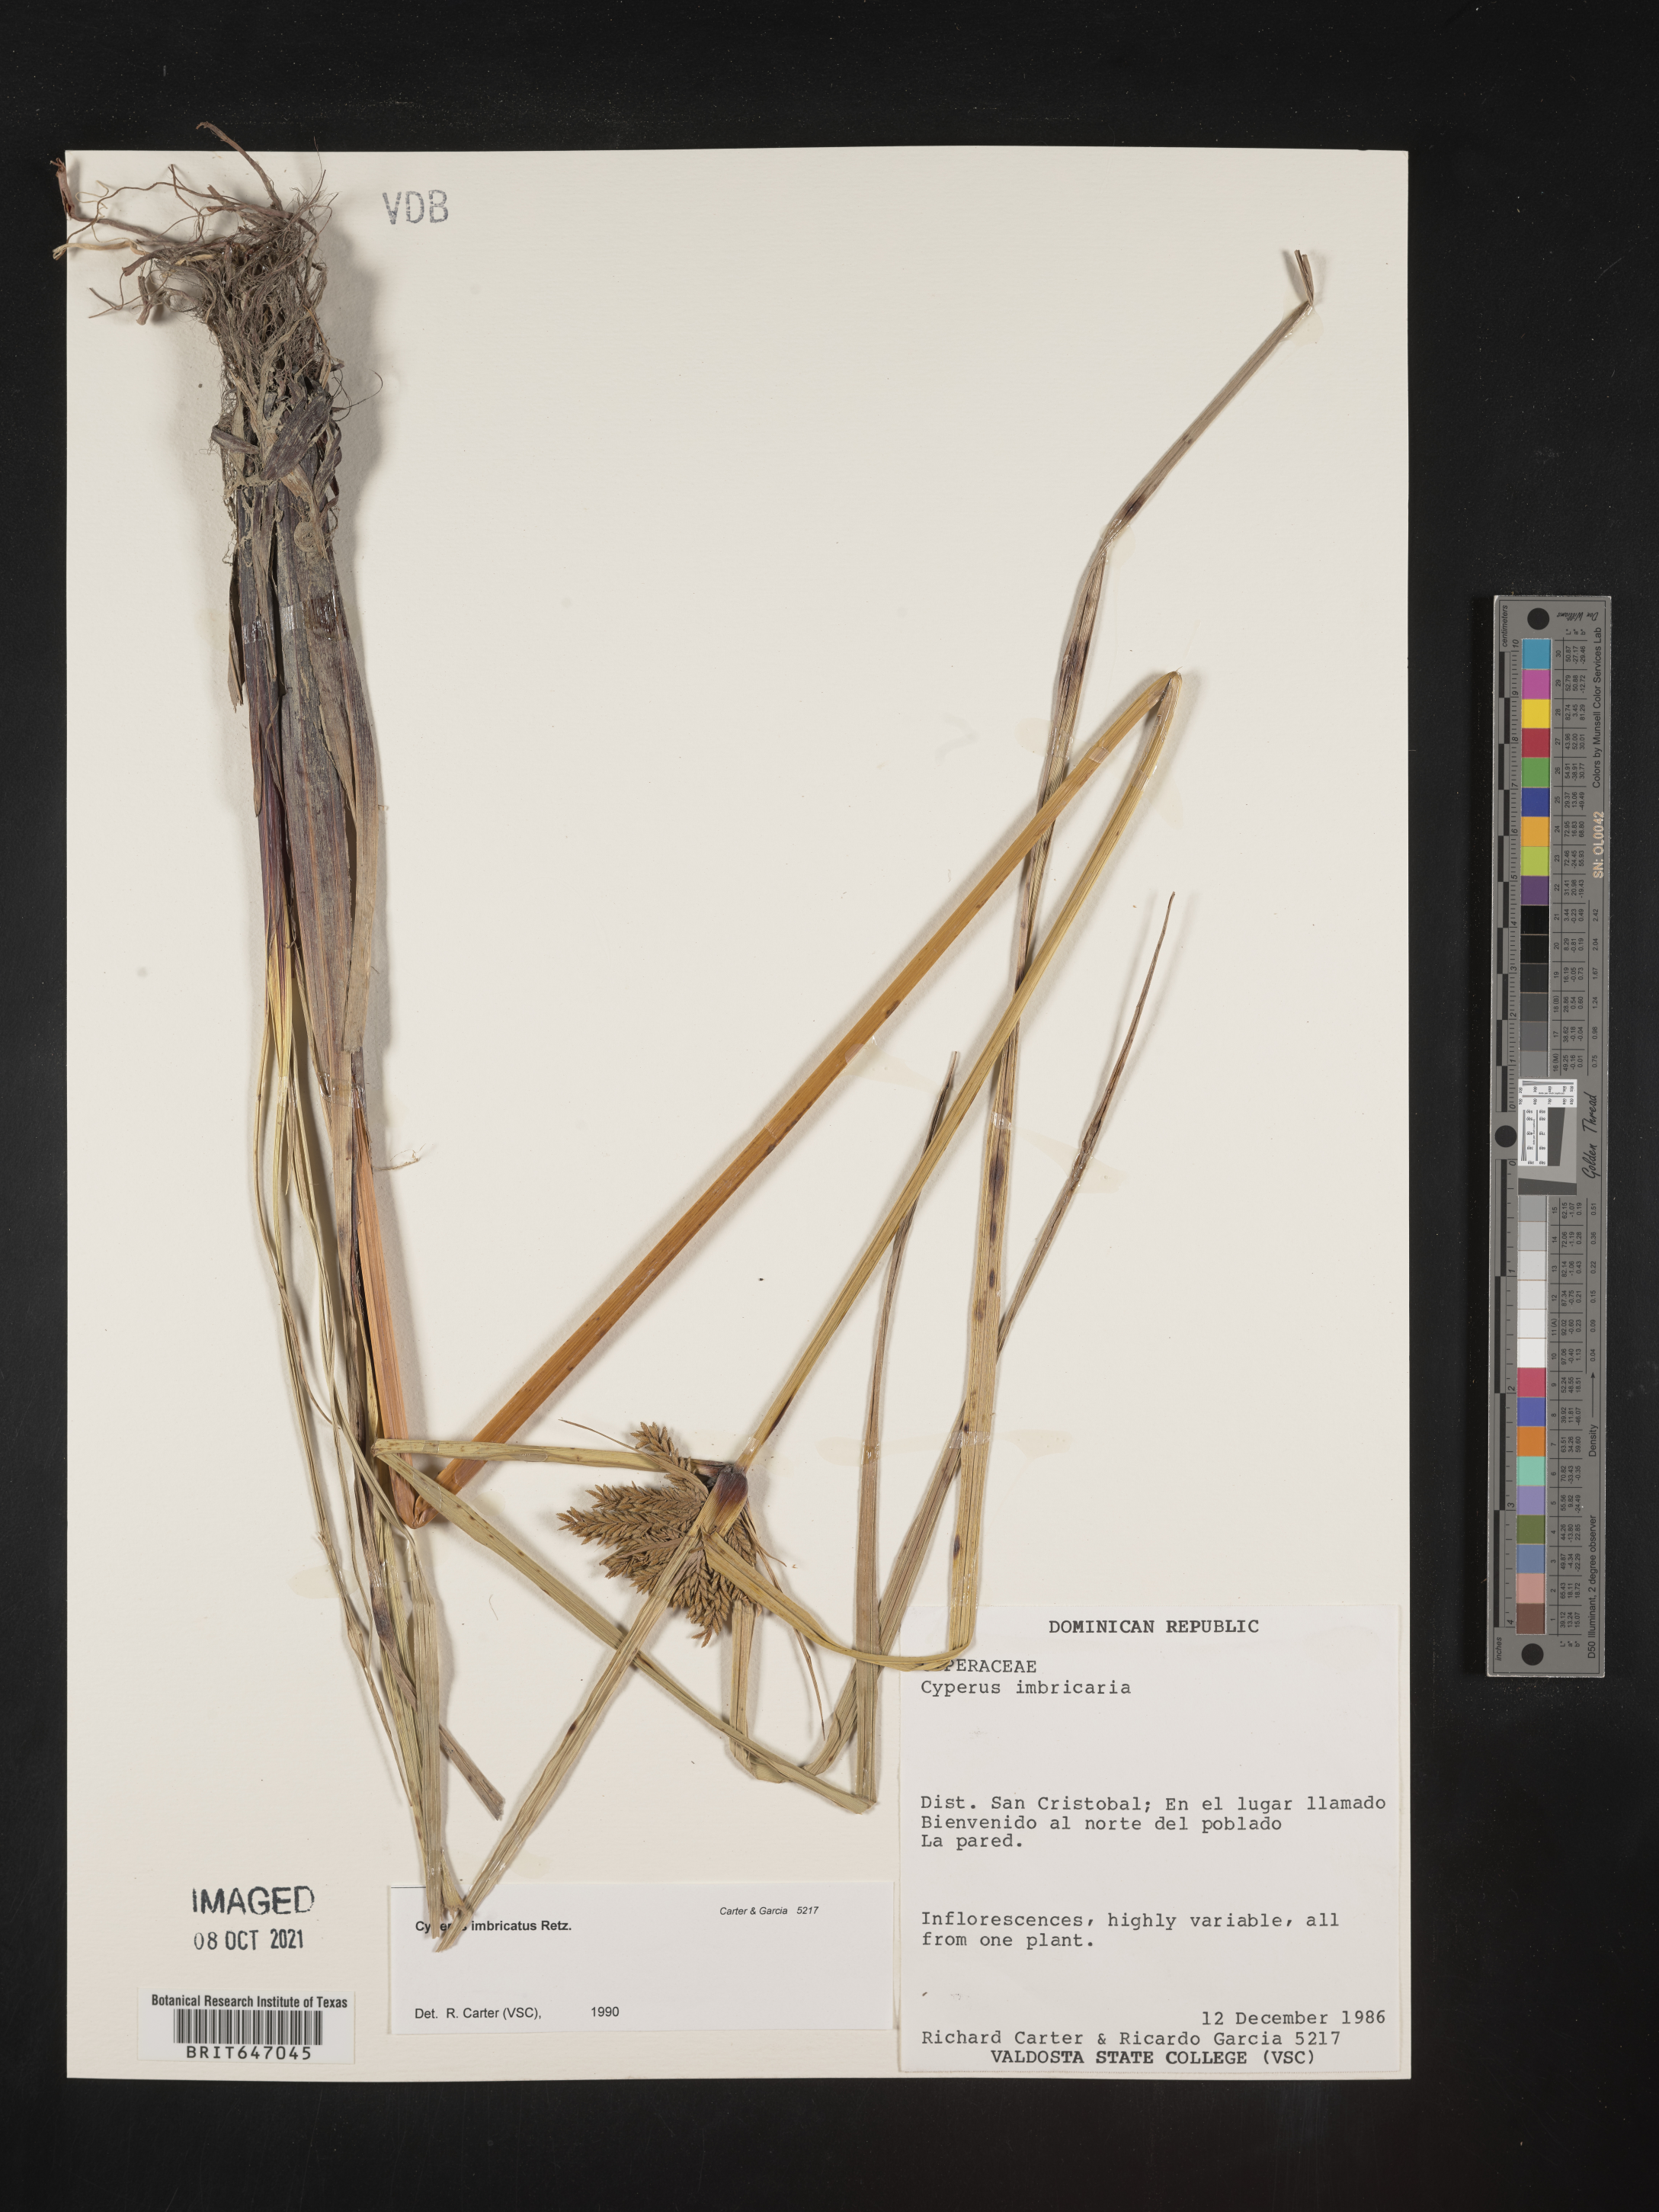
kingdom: Plantae
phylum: Tracheophyta
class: Liliopsida
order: Poales
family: Cyperaceae
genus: Cyperus
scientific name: Cyperus imbricatus
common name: Shingle flatsedge
